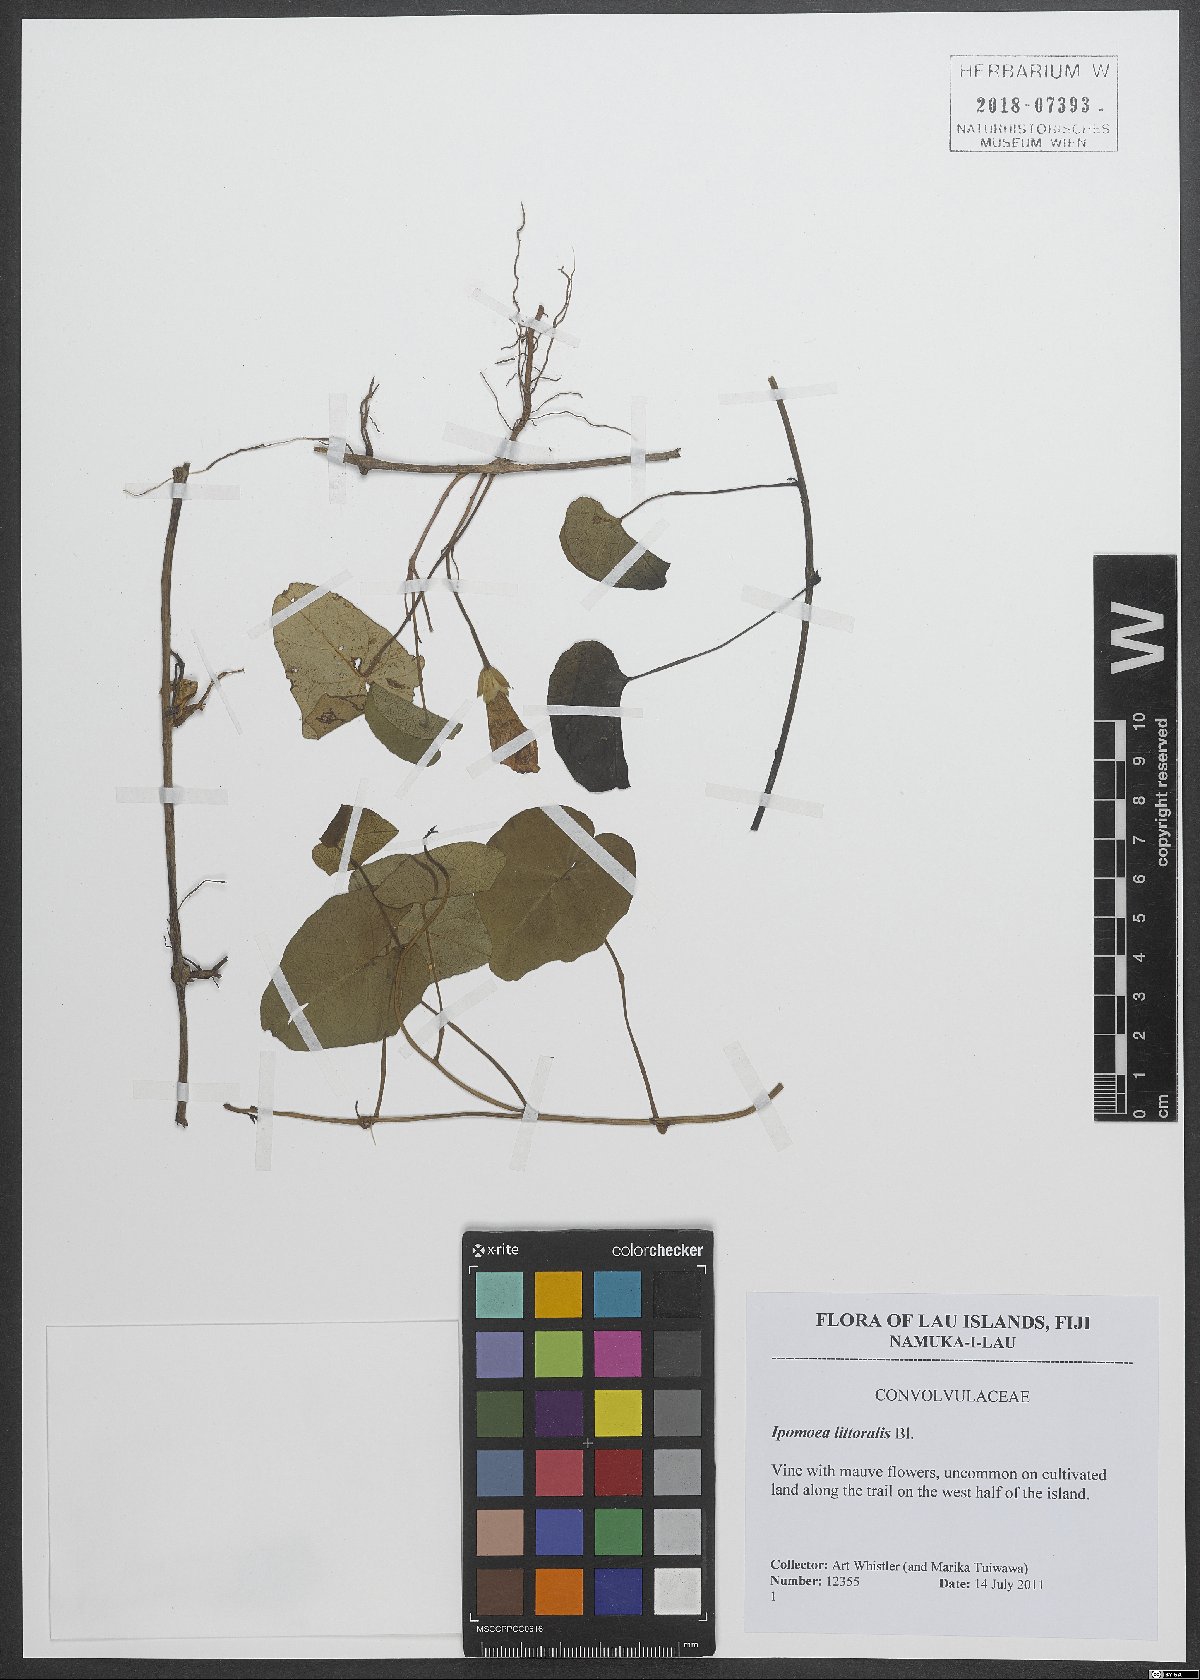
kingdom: Plantae
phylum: Tracheophyta
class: Magnoliopsida
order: Solanales
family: Convolvulaceae
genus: Ipomoea
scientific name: Ipomoea imperati
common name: Fiddle-leaf morning-glory
